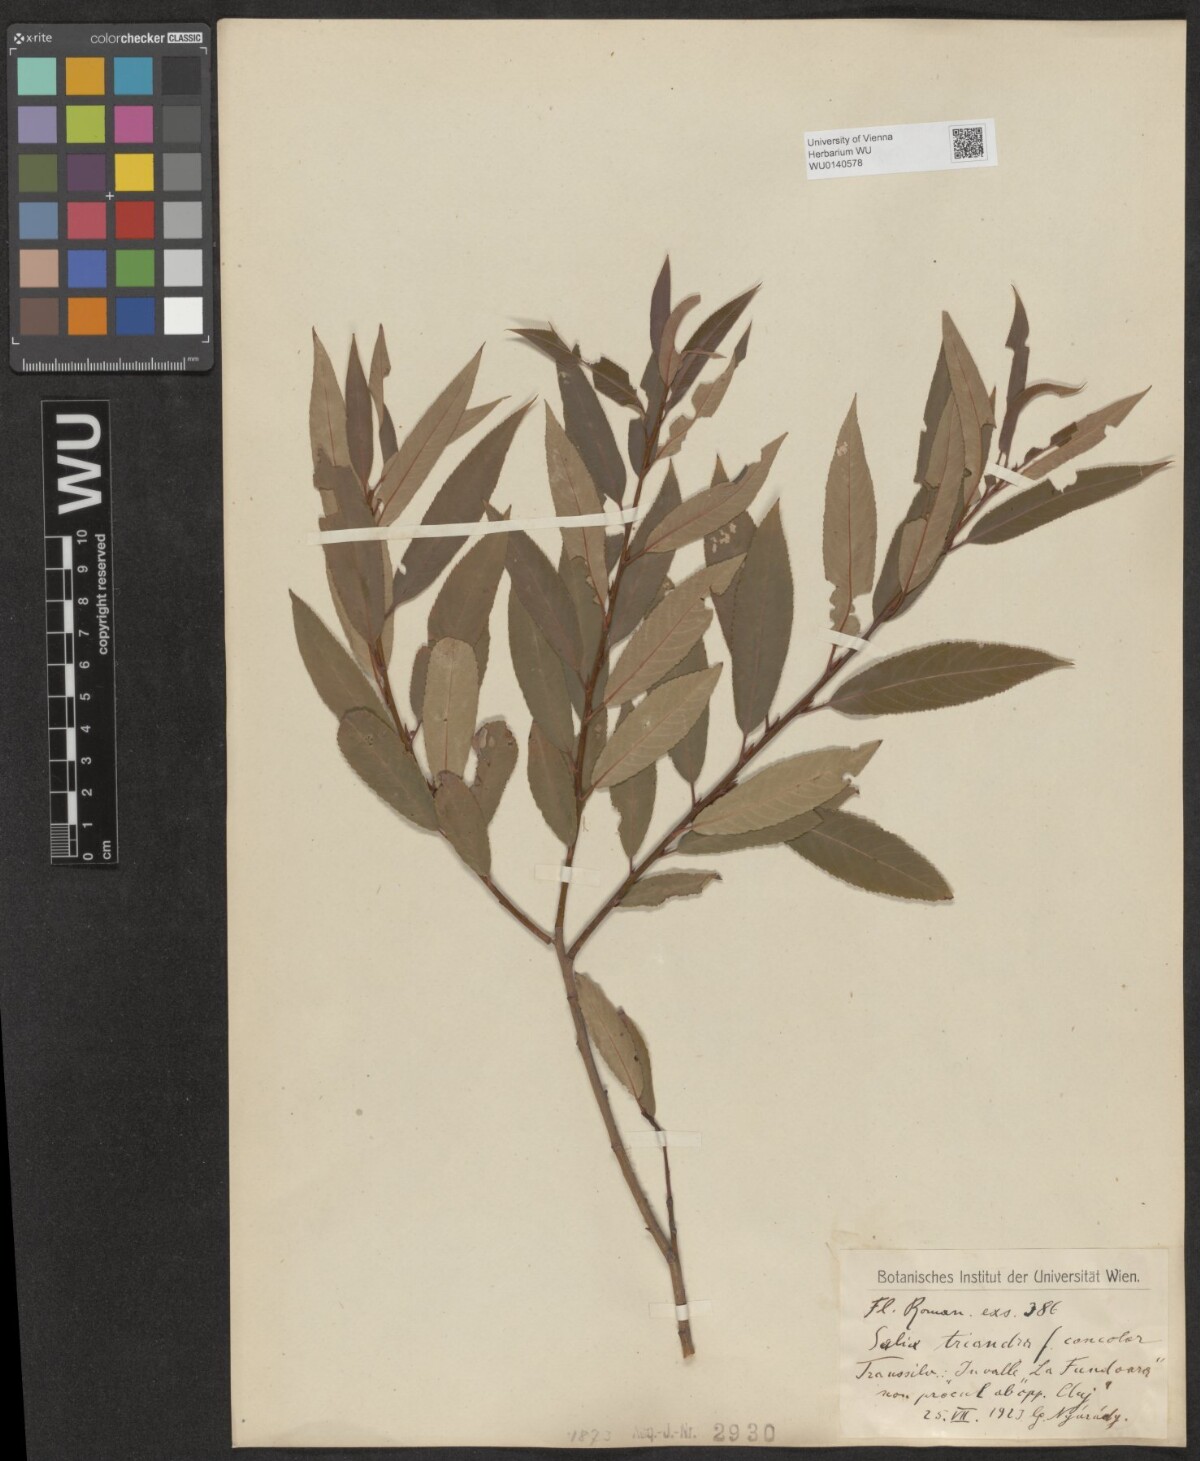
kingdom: Plantae
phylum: Tracheophyta
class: Magnoliopsida
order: Malpighiales
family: Salicaceae
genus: Salix
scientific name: Salix triandra
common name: Almond willow
